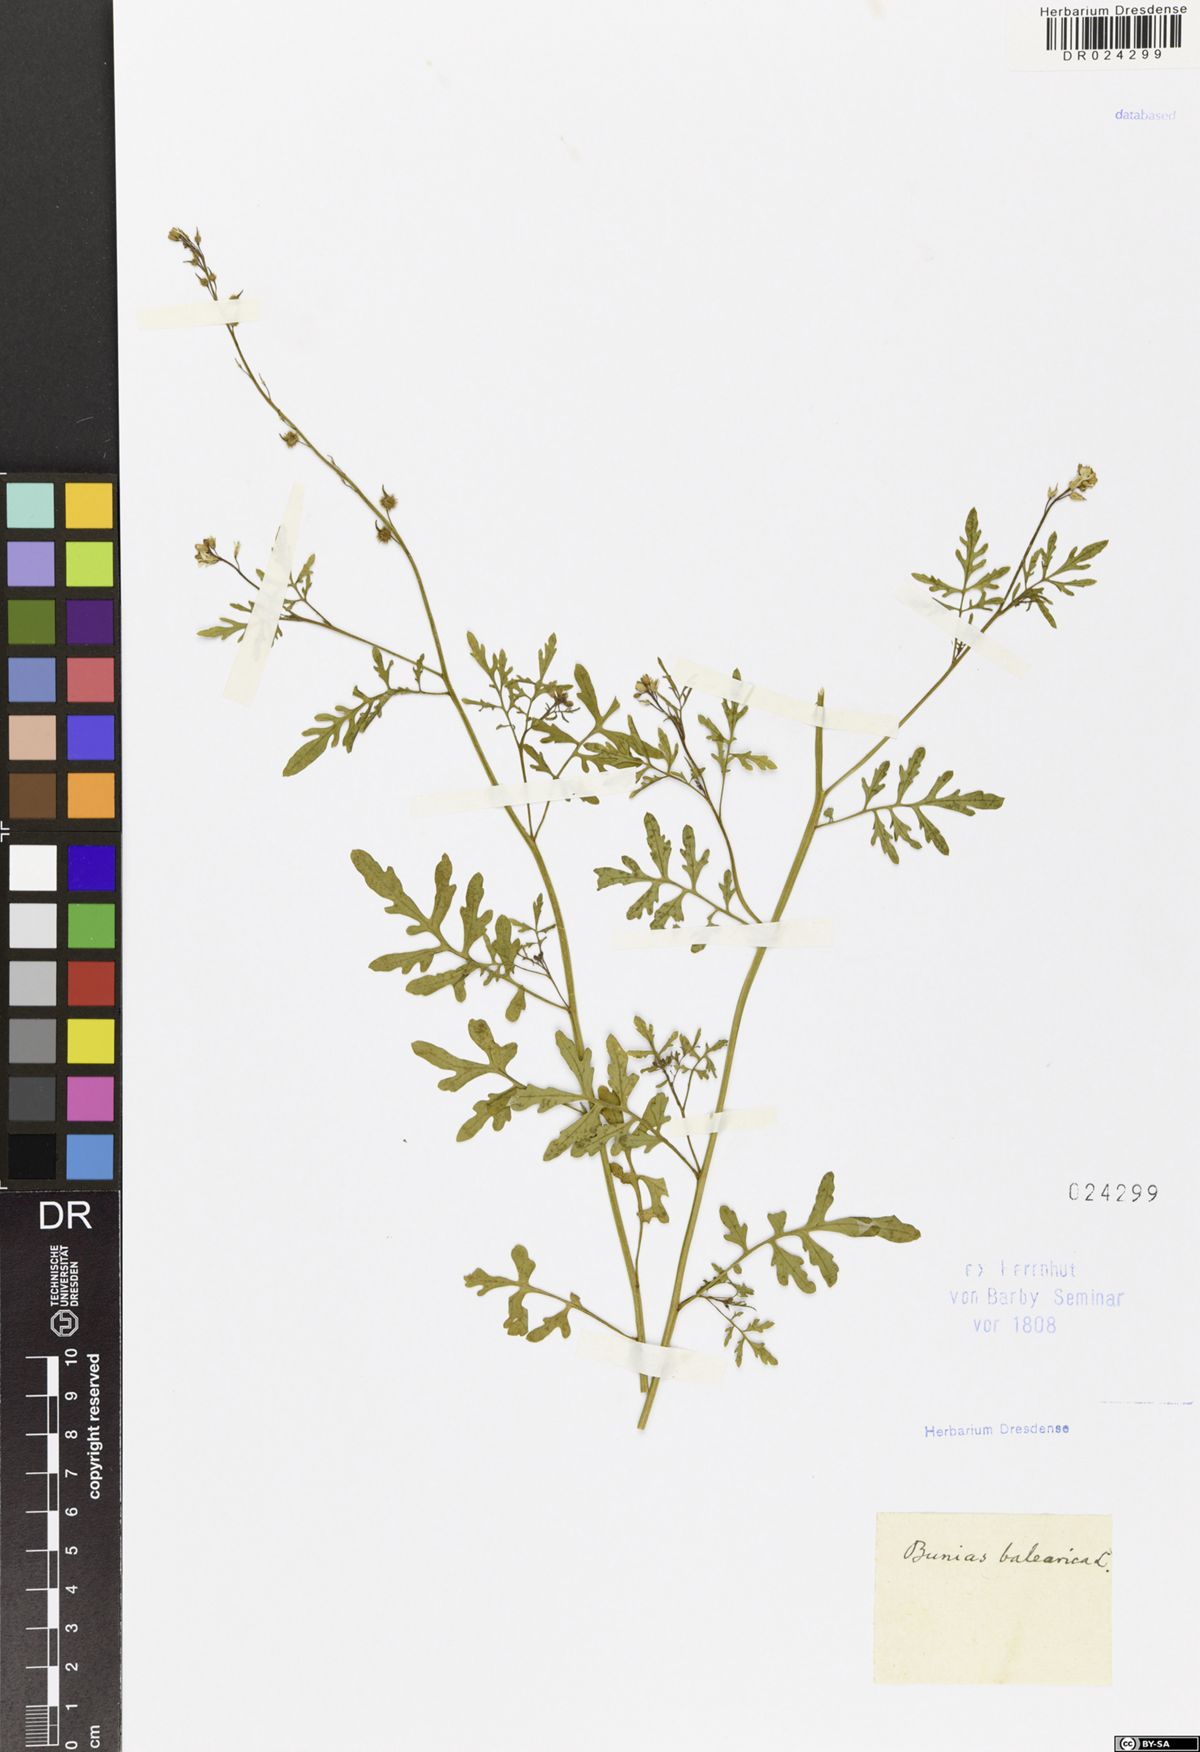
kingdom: Plantae
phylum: Tracheophyta
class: Magnoliopsida
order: Brassicales
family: Brassicaceae
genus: Succowia
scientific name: Succowia balearica
